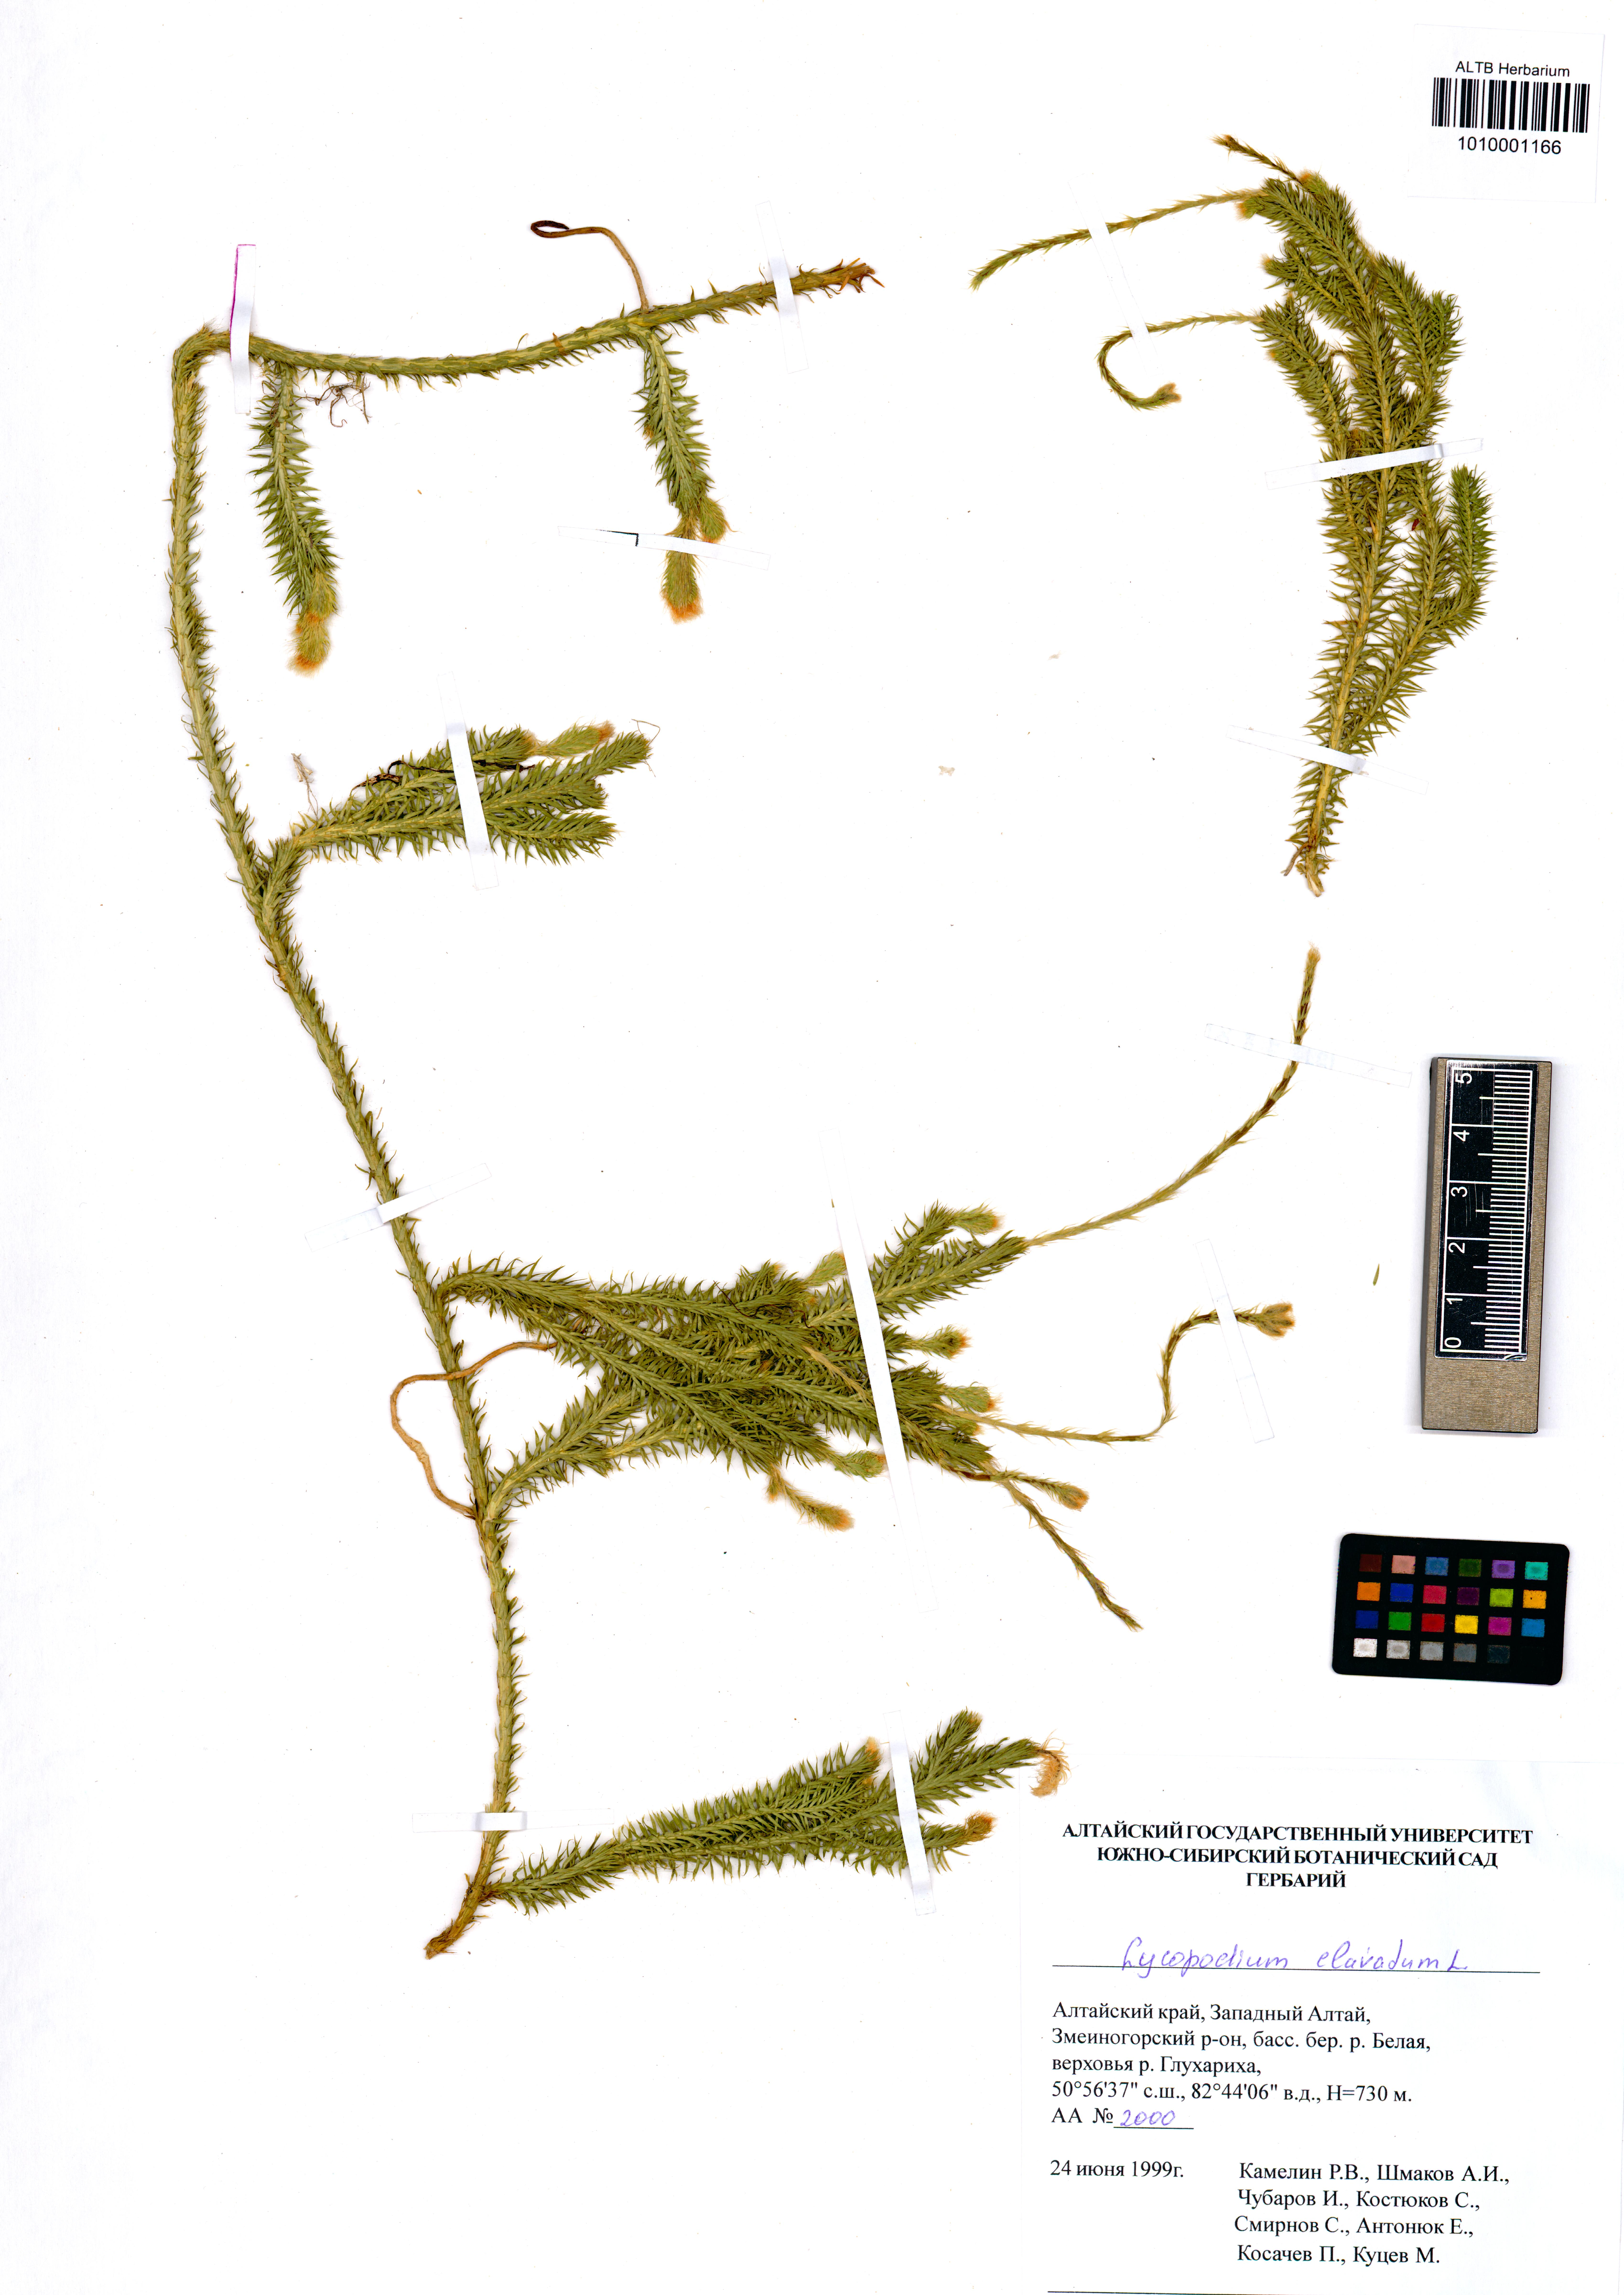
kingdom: Plantae
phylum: Tracheophyta
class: Lycopodiopsida
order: Lycopodiales
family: Lycopodiaceae
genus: Lycopodium
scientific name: Lycopodium clavatum
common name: Stag's-horn clubmoss
